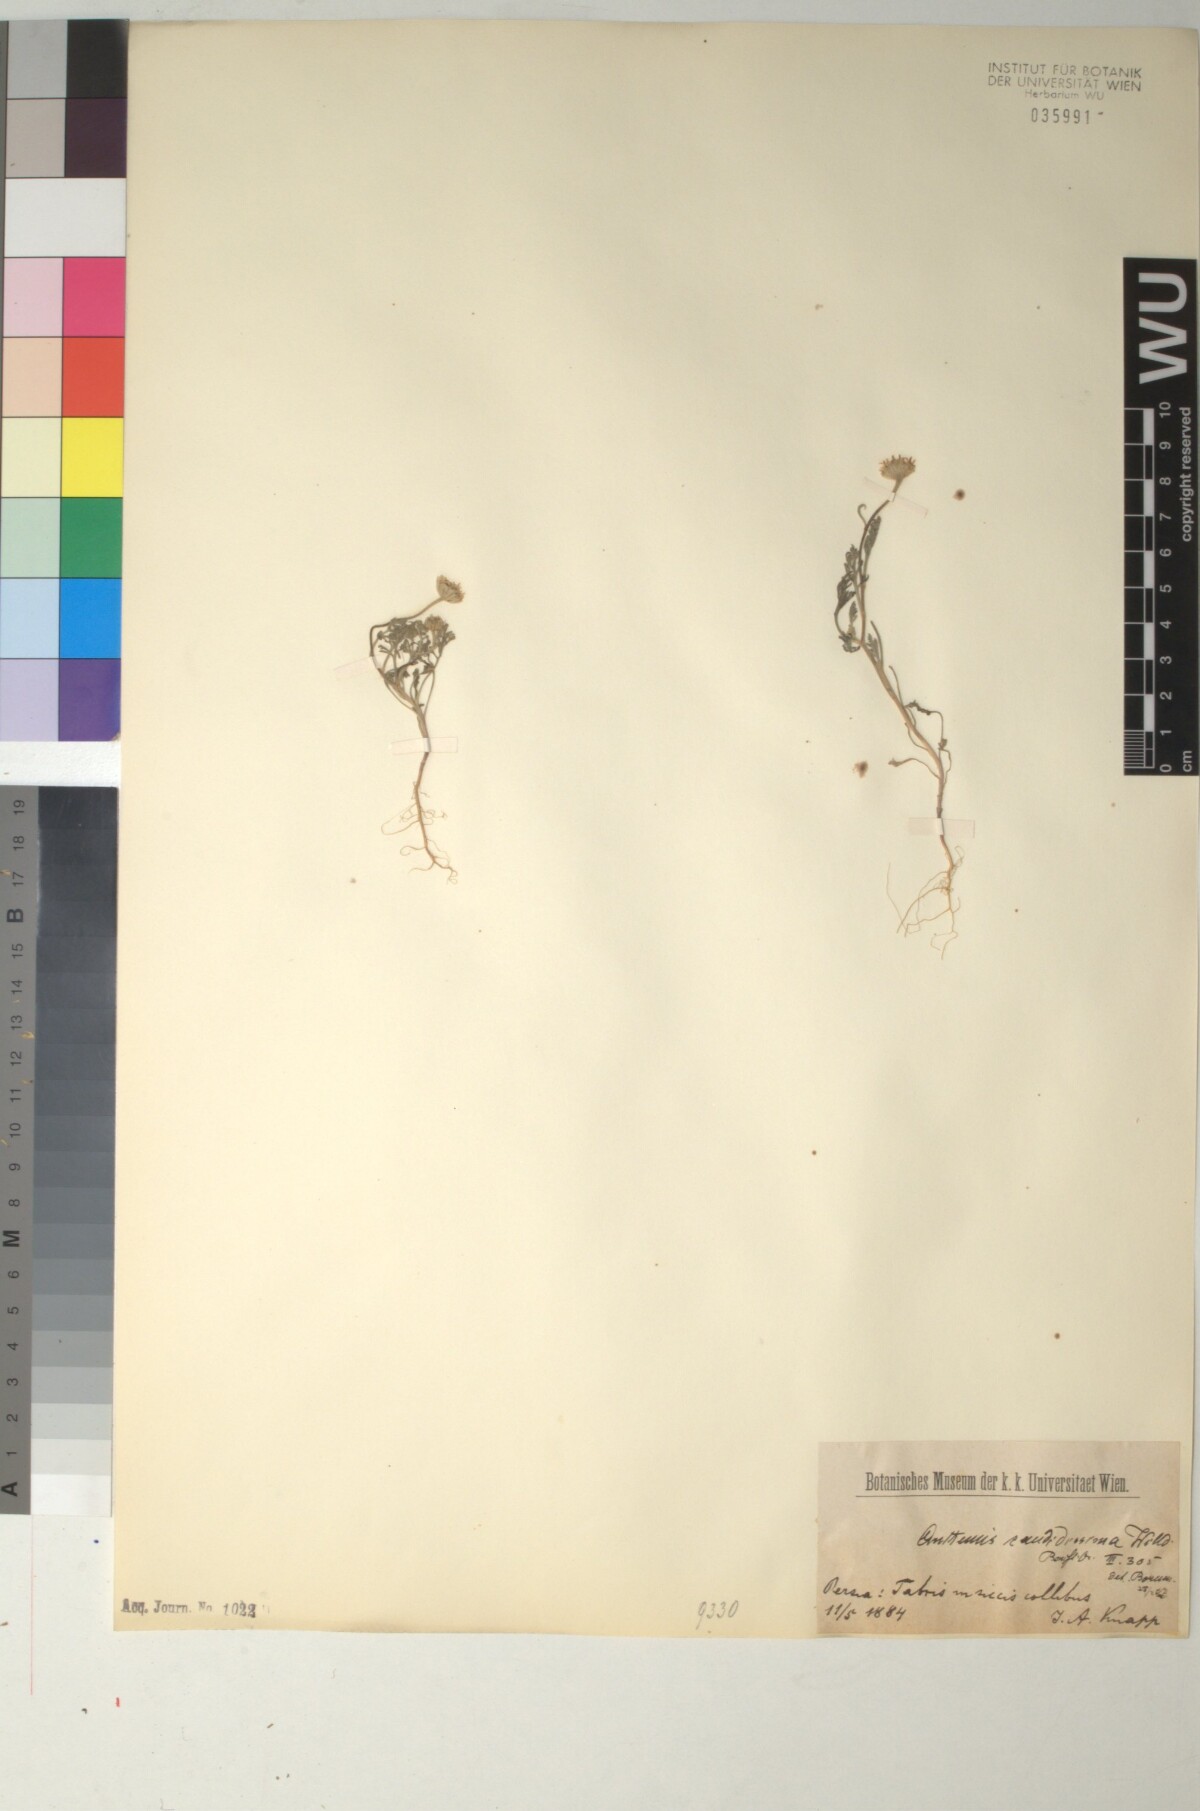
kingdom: Plantae
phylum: Tracheophyta
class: Magnoliopsida
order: Asterales
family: Asteraceae
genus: Anthemis
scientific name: Anthemis candidissima
